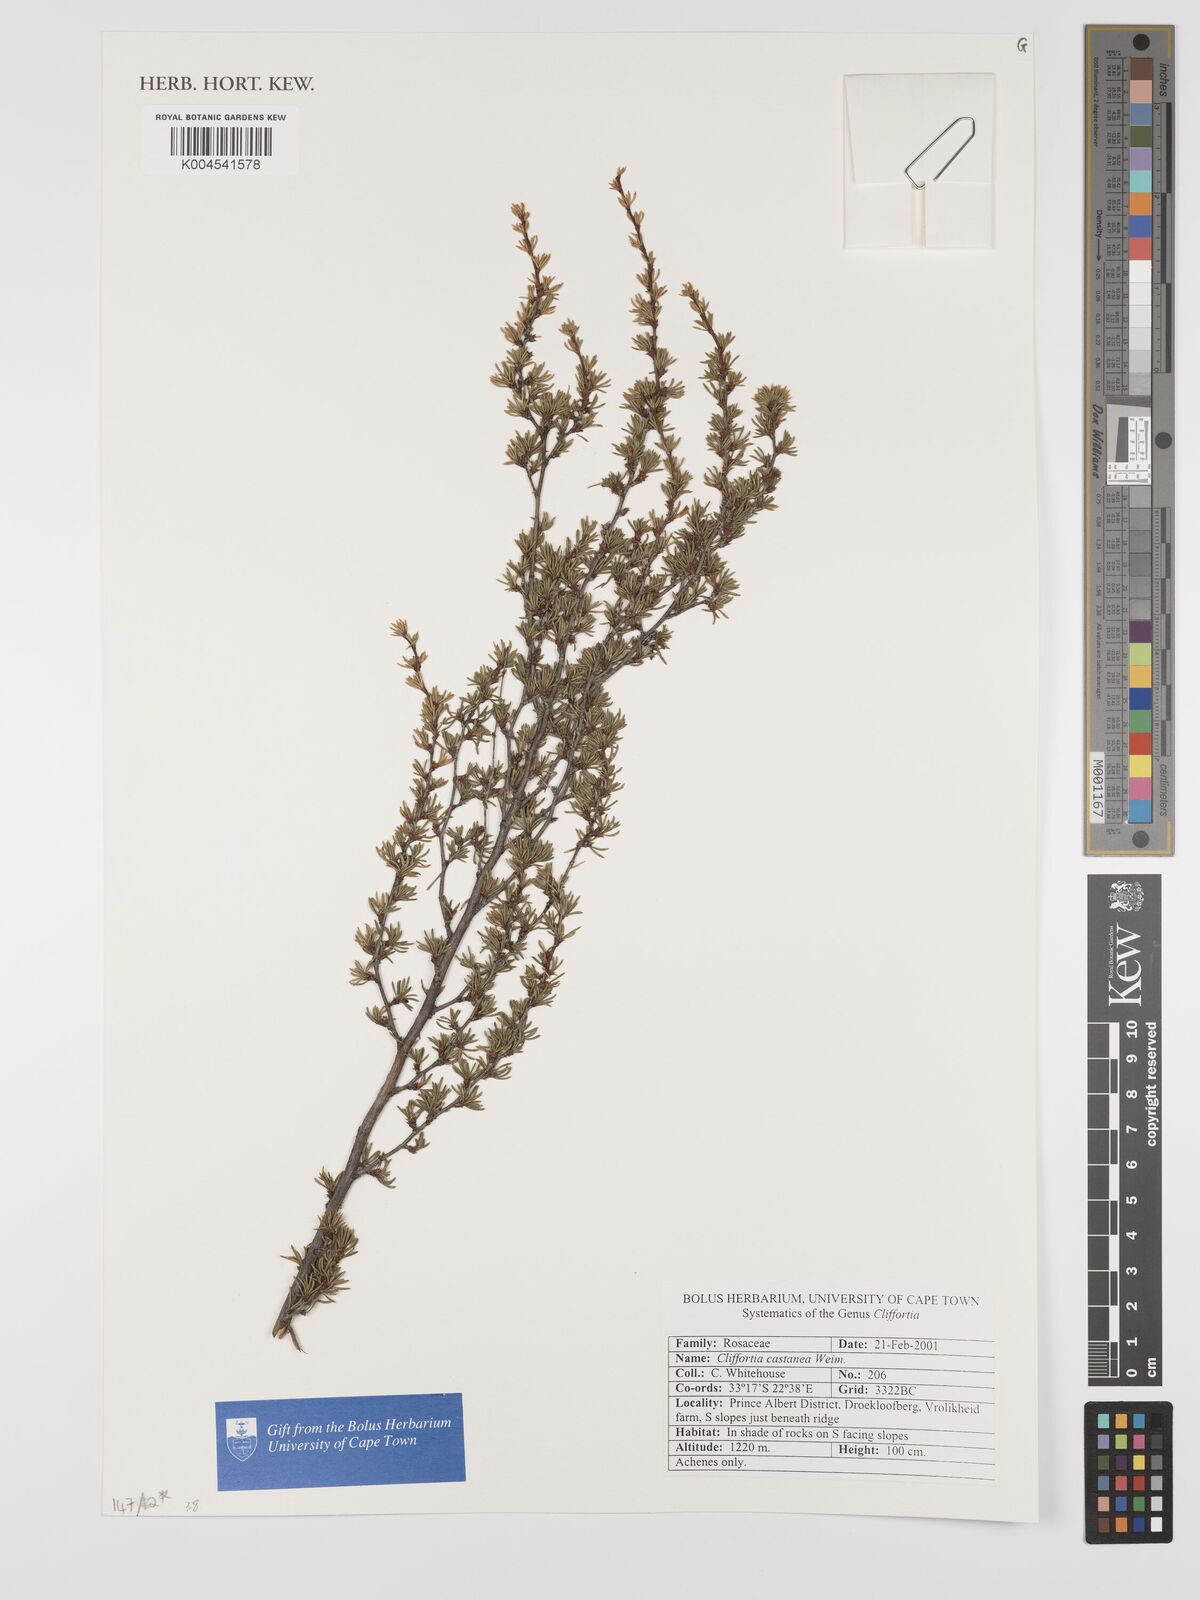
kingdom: Plantae
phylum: Tracheophyta
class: Magnoliopsida
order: Rosales
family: Rosaceae
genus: Cliffortia
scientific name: Cliffortia castanea
